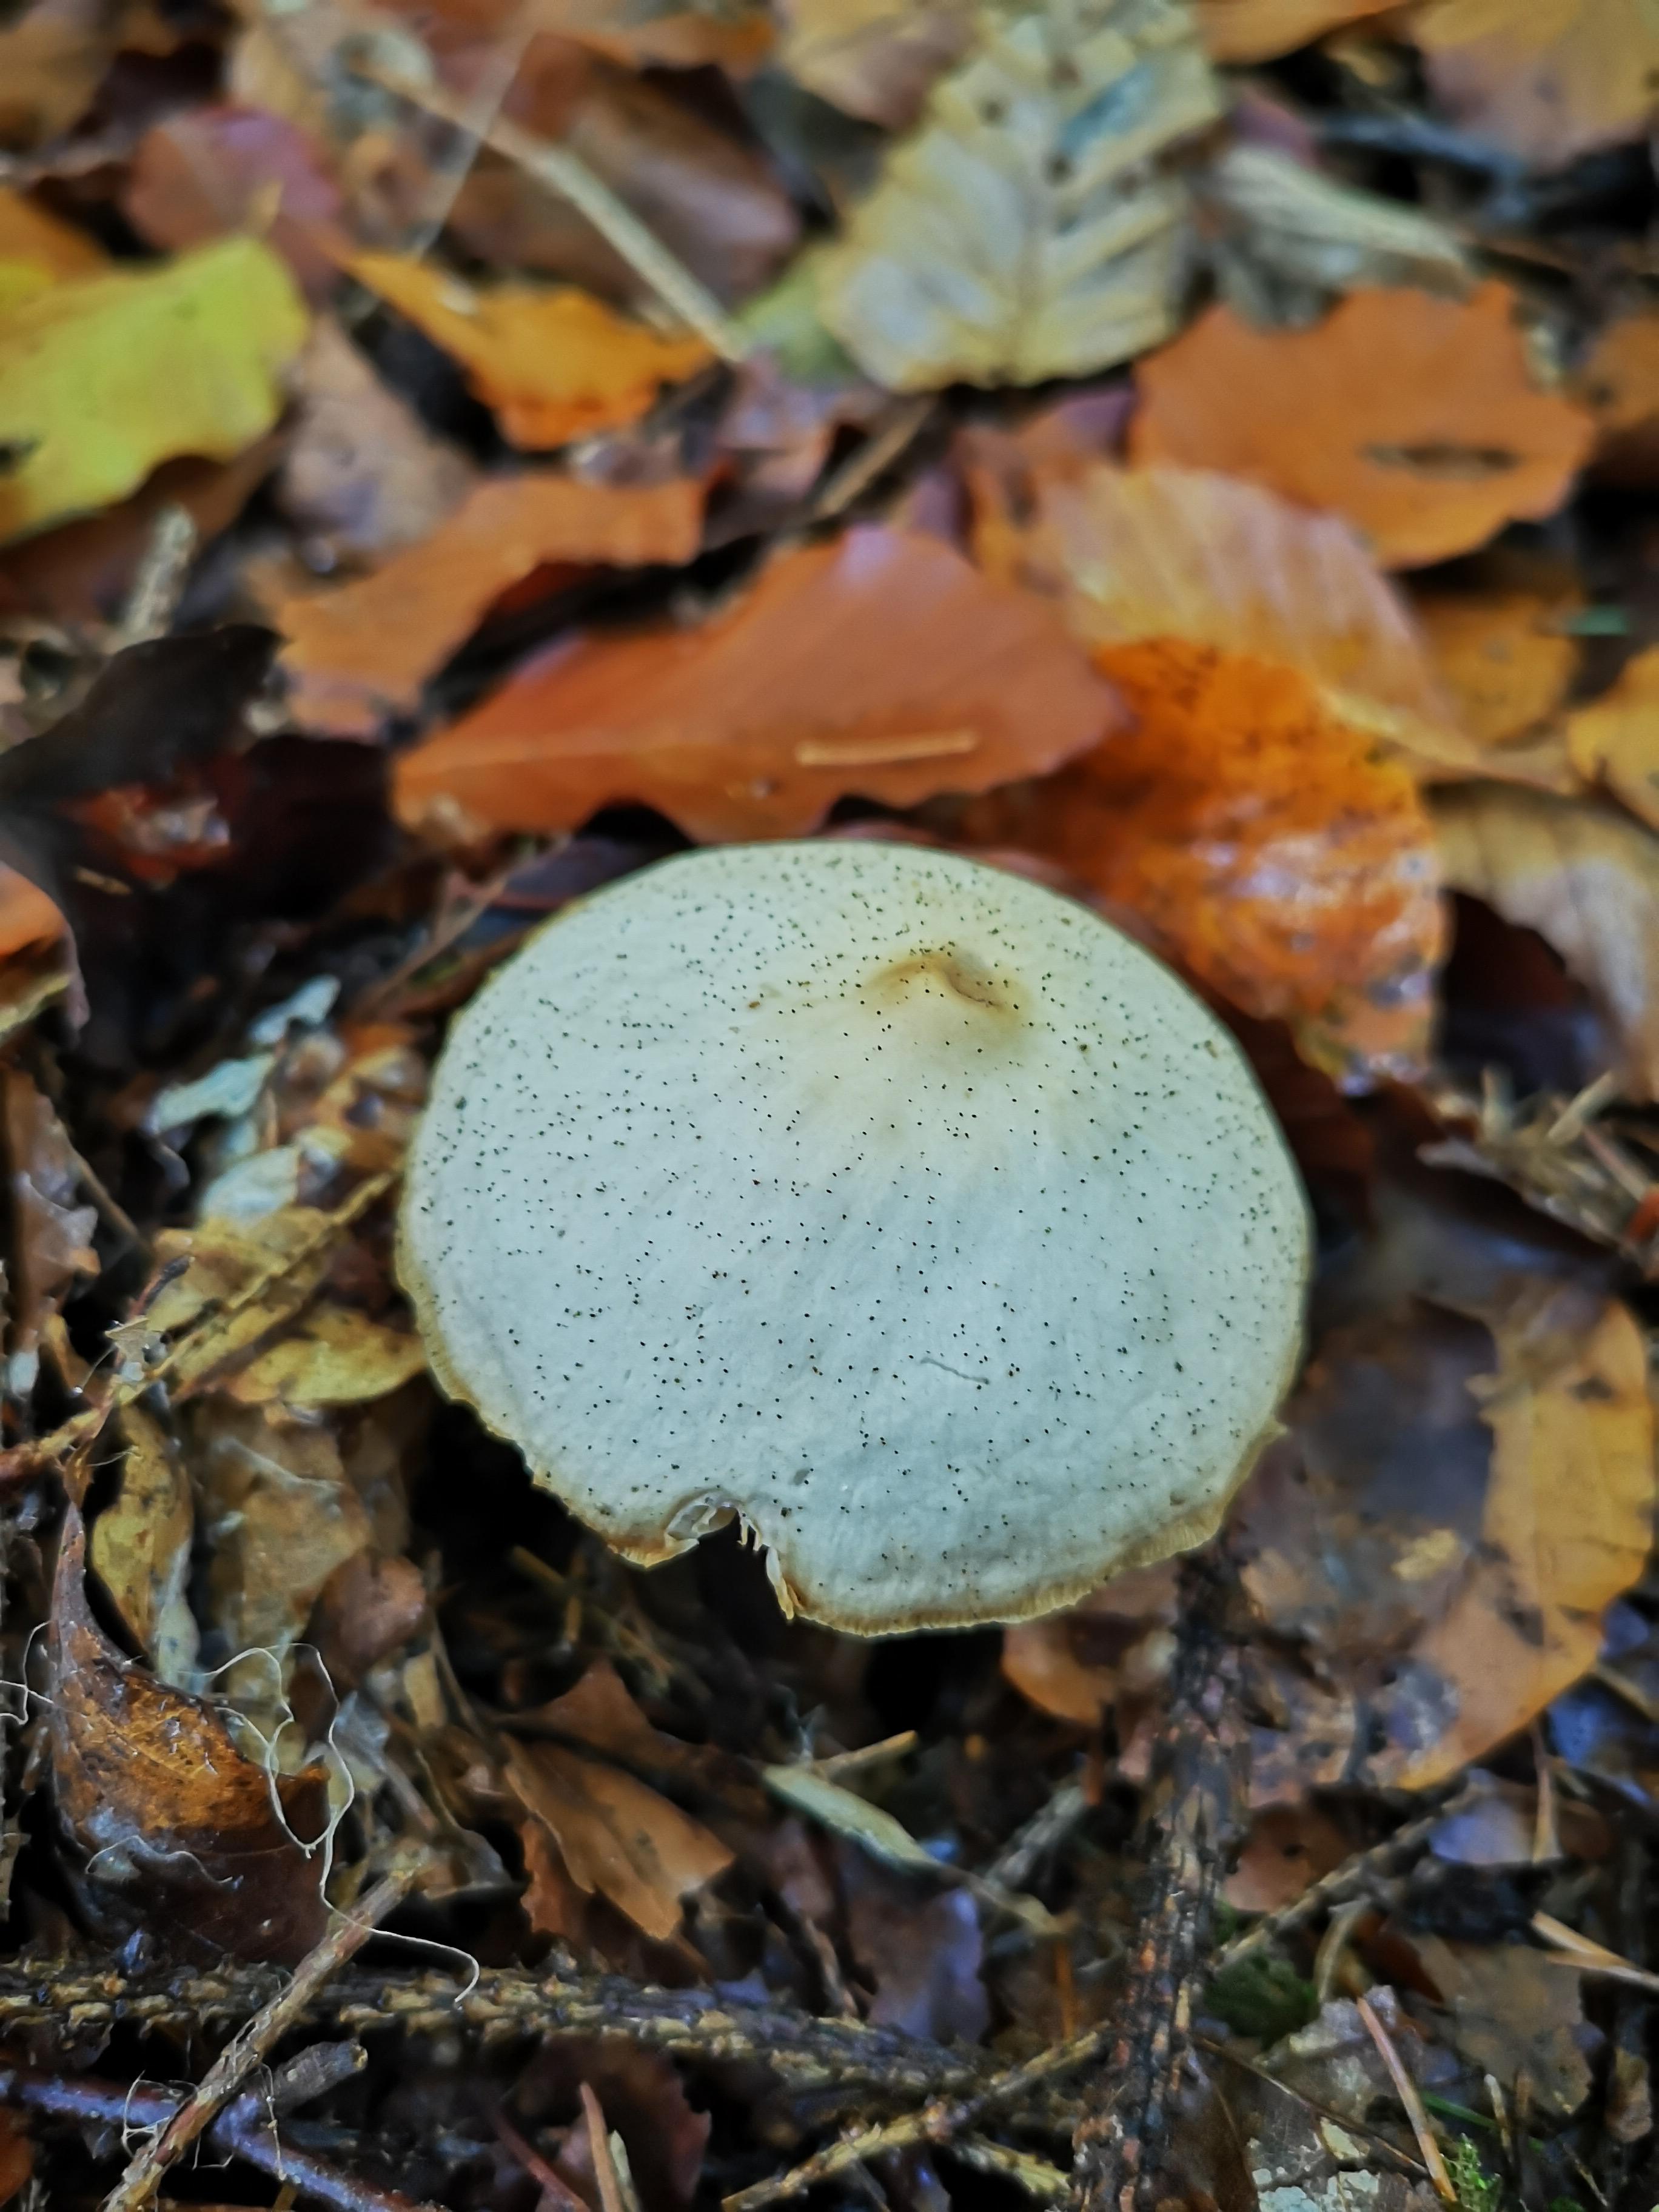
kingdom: Fungi
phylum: Basidiomycota
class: Agaricomycetes
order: Agaricales
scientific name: Agaricales
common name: champignonordenen
